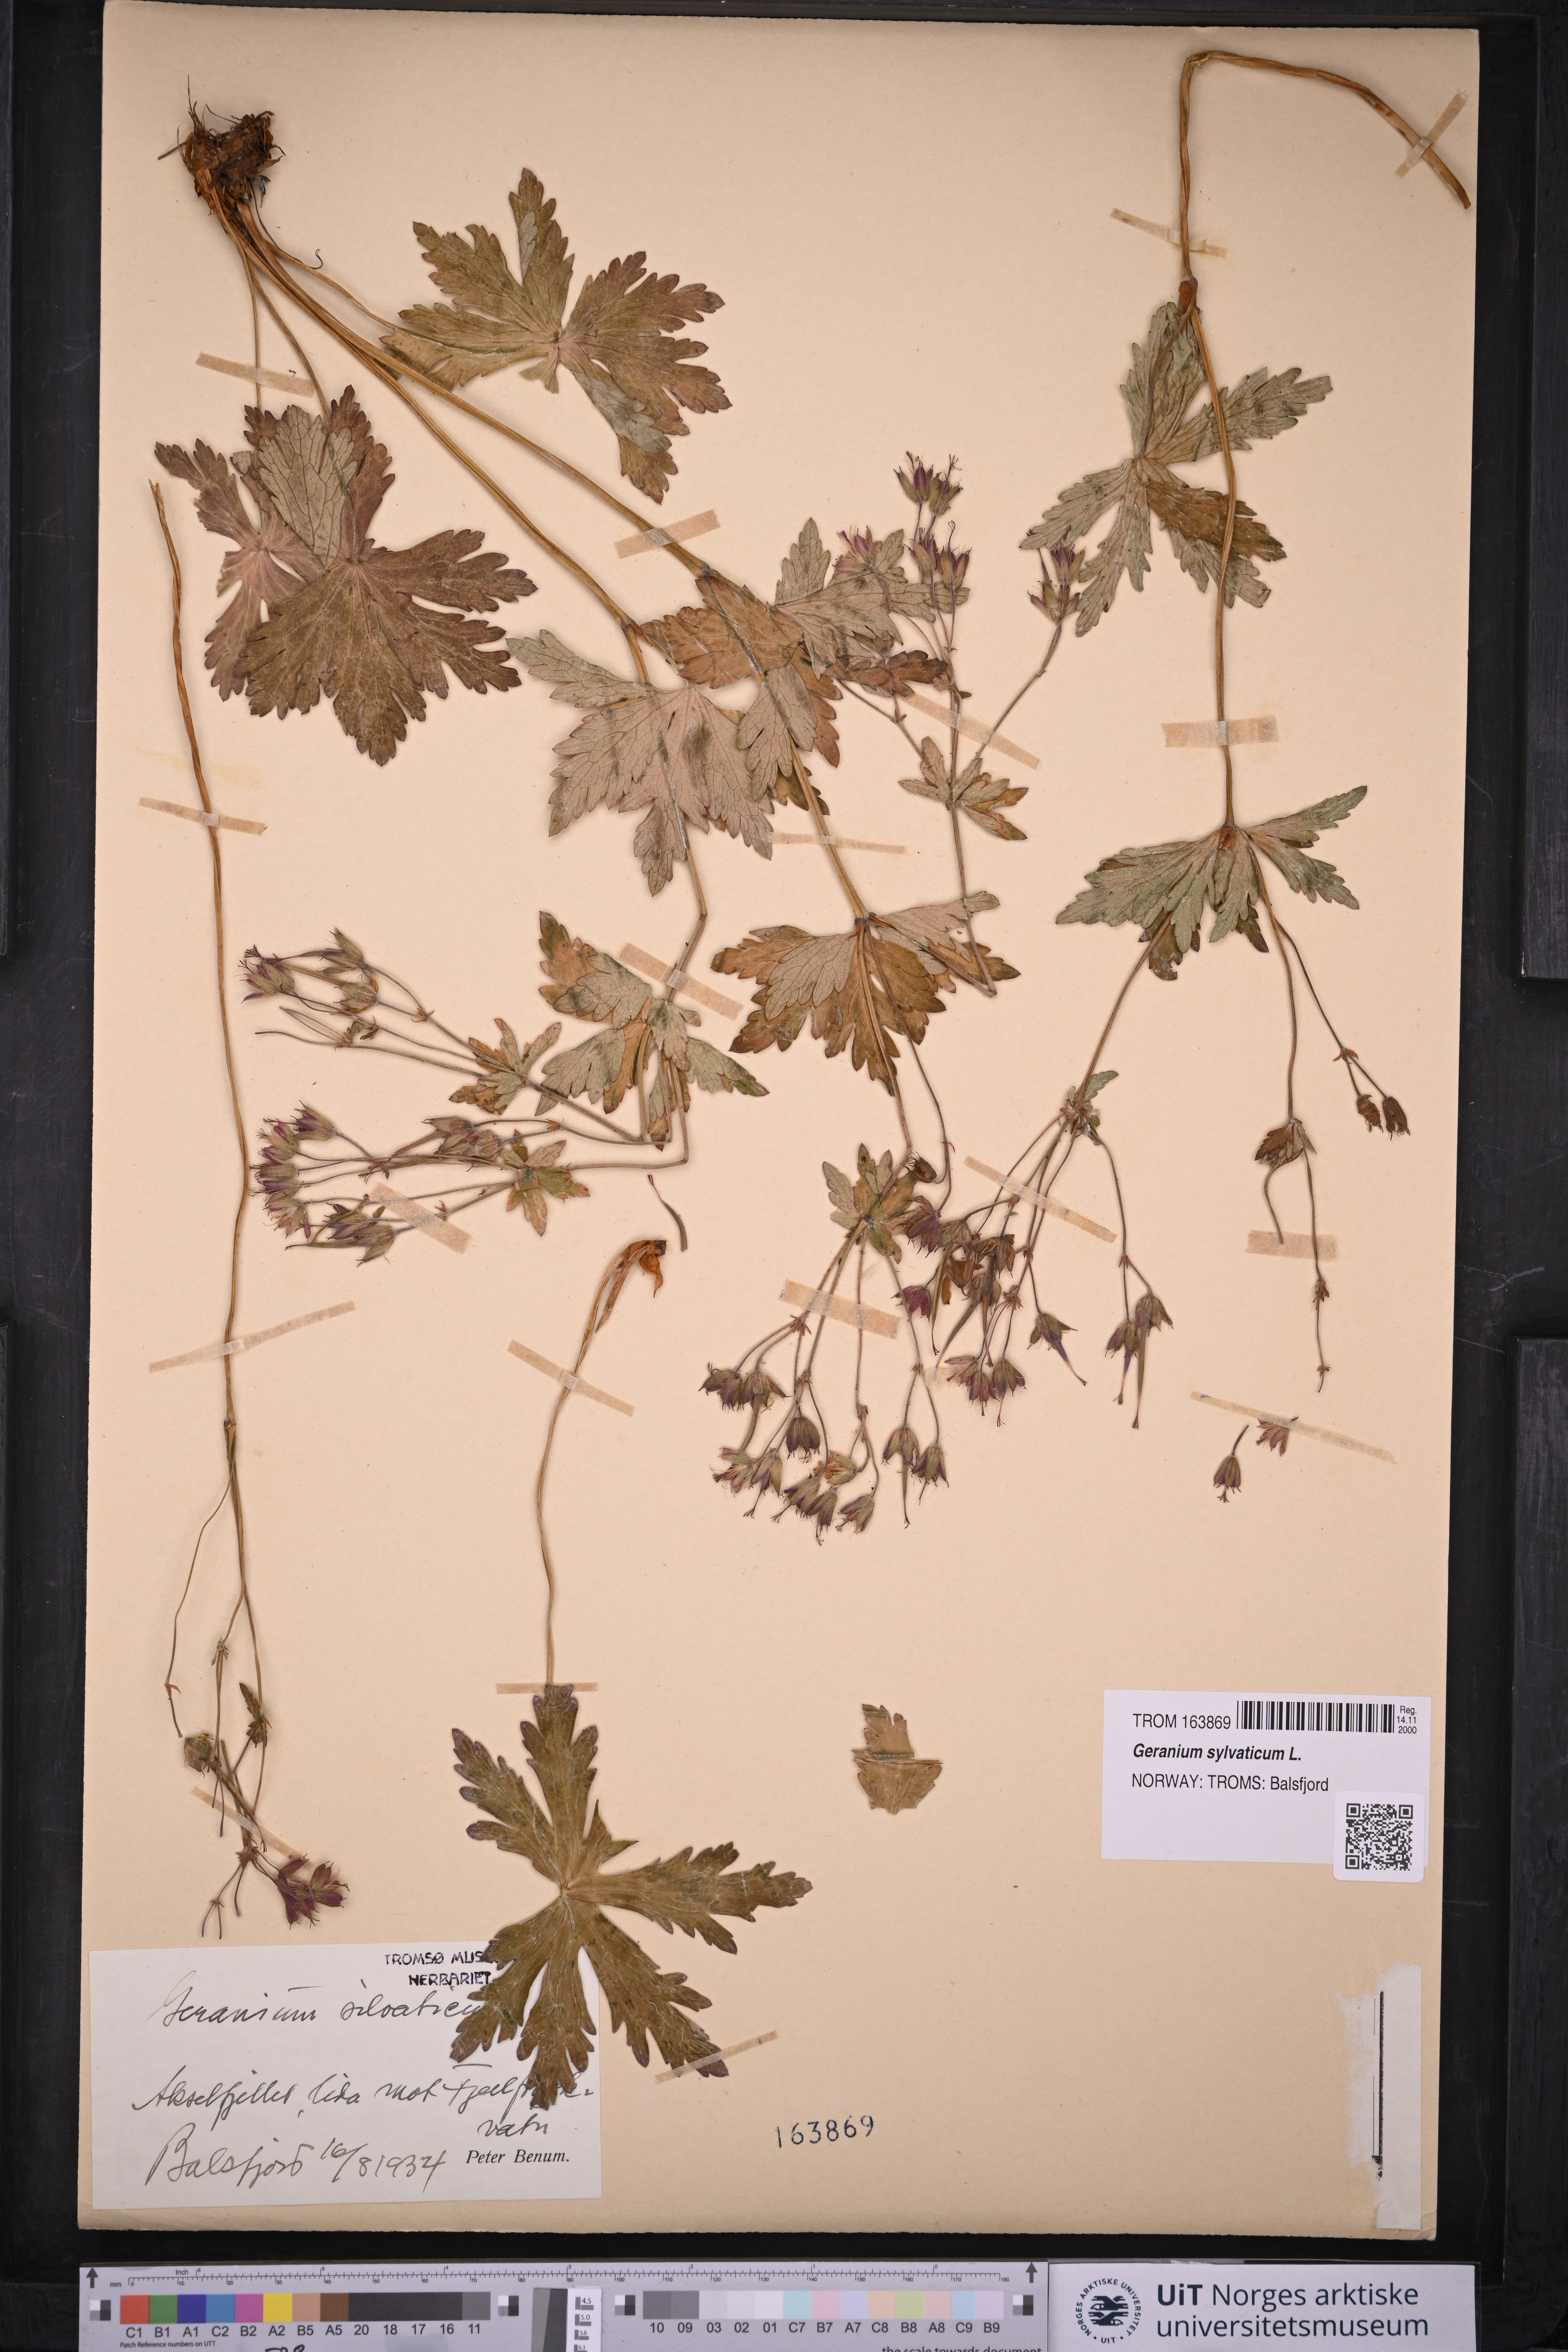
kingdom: Plantae
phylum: Tracheophyta
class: Magnoliopsida
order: Geraniales
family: Geraniaceae
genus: Geranium
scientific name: Geranium sylvaticum
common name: Wood crane's-bill
